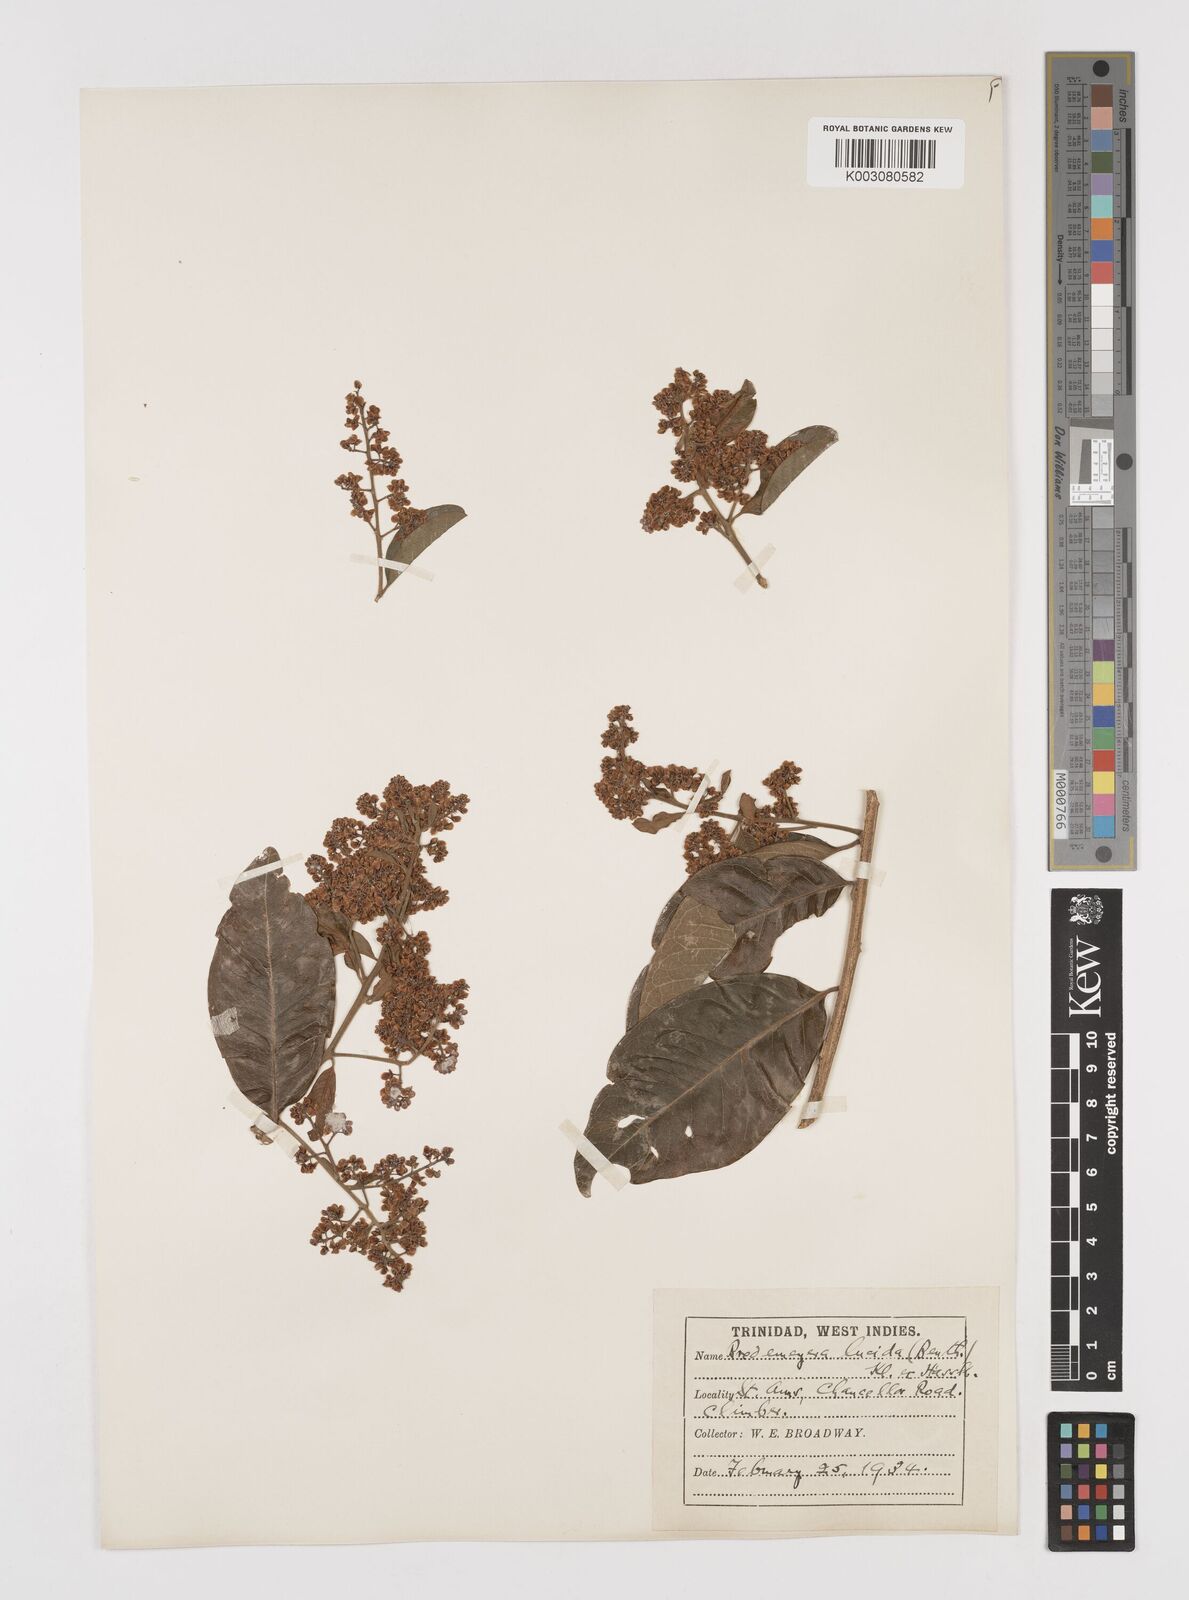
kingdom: Plantae
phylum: Tracheophyta
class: Magnoliopsida
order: Fabales
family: Polygalaceae
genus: Bredemeyera
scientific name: Bredemeyera lucida
